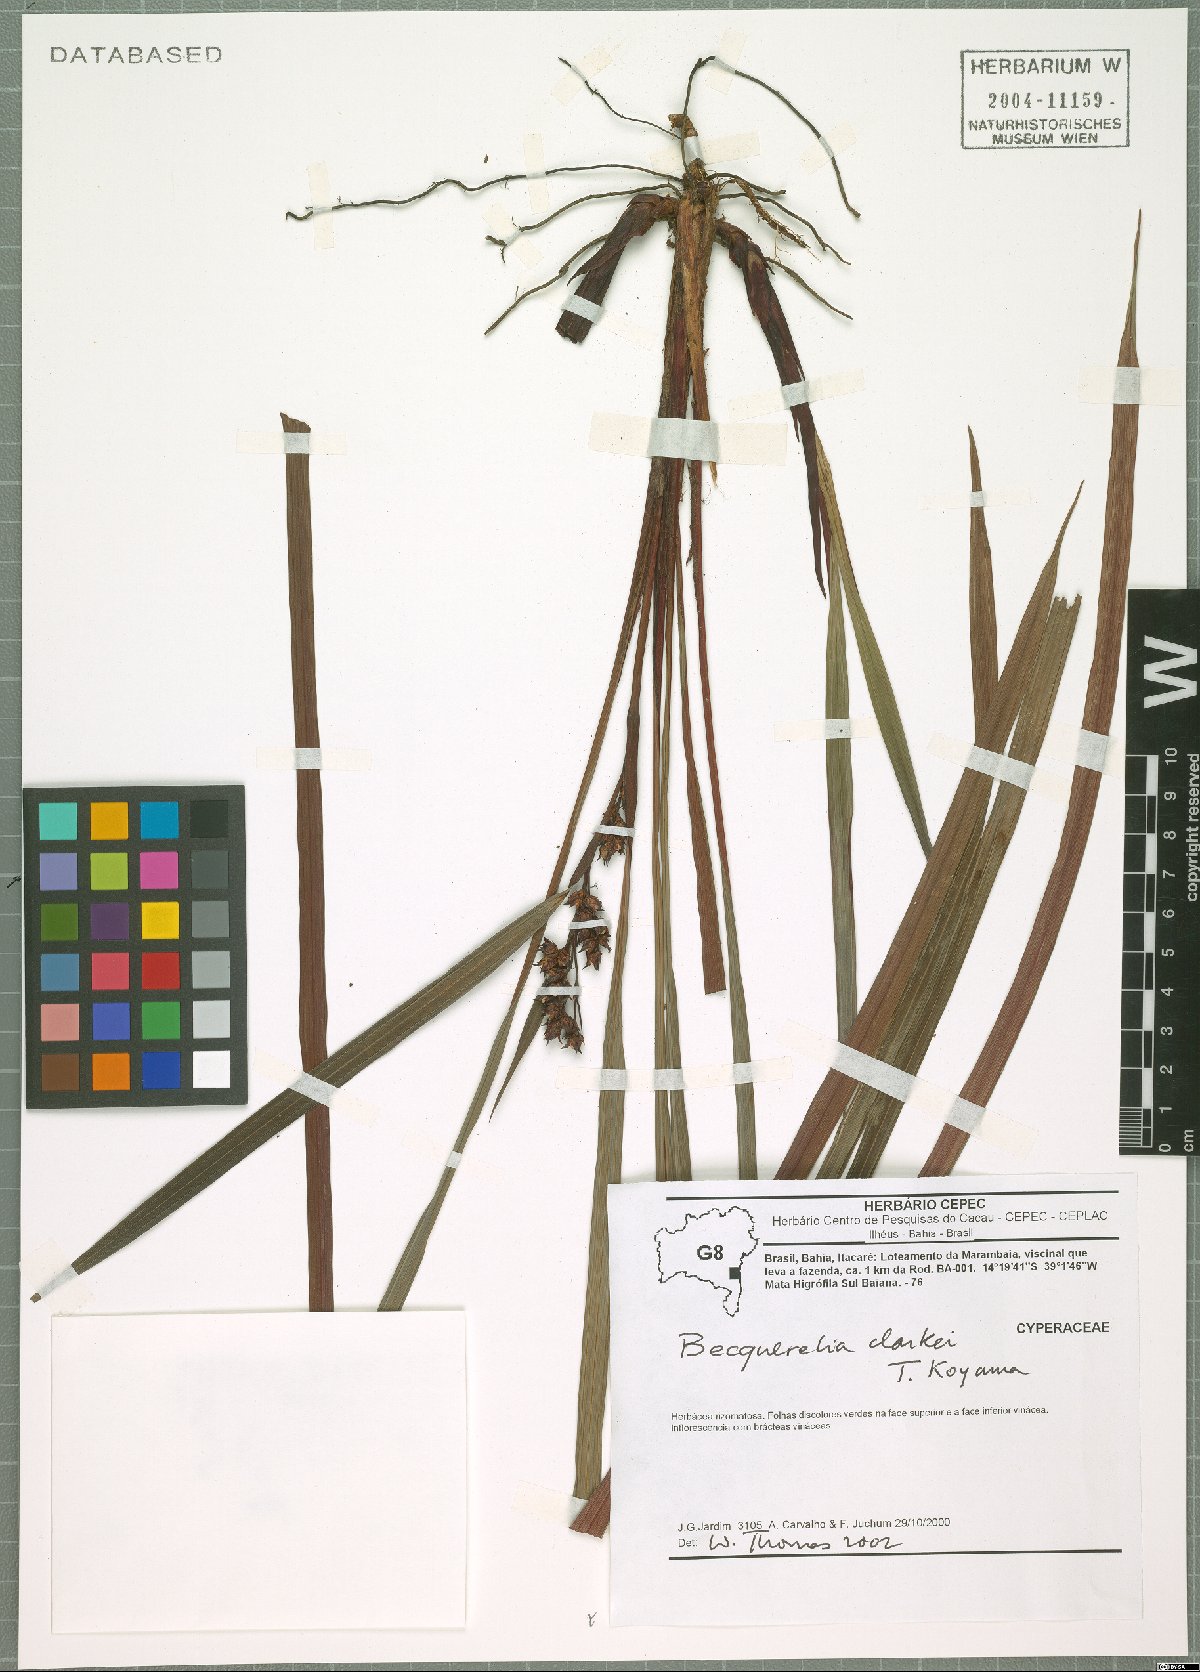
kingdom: Plantae
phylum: Tracheophyta
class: Liliopsida
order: Poales
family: Cyperaceae
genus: Becquerelia
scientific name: Becquerelia clarkei
